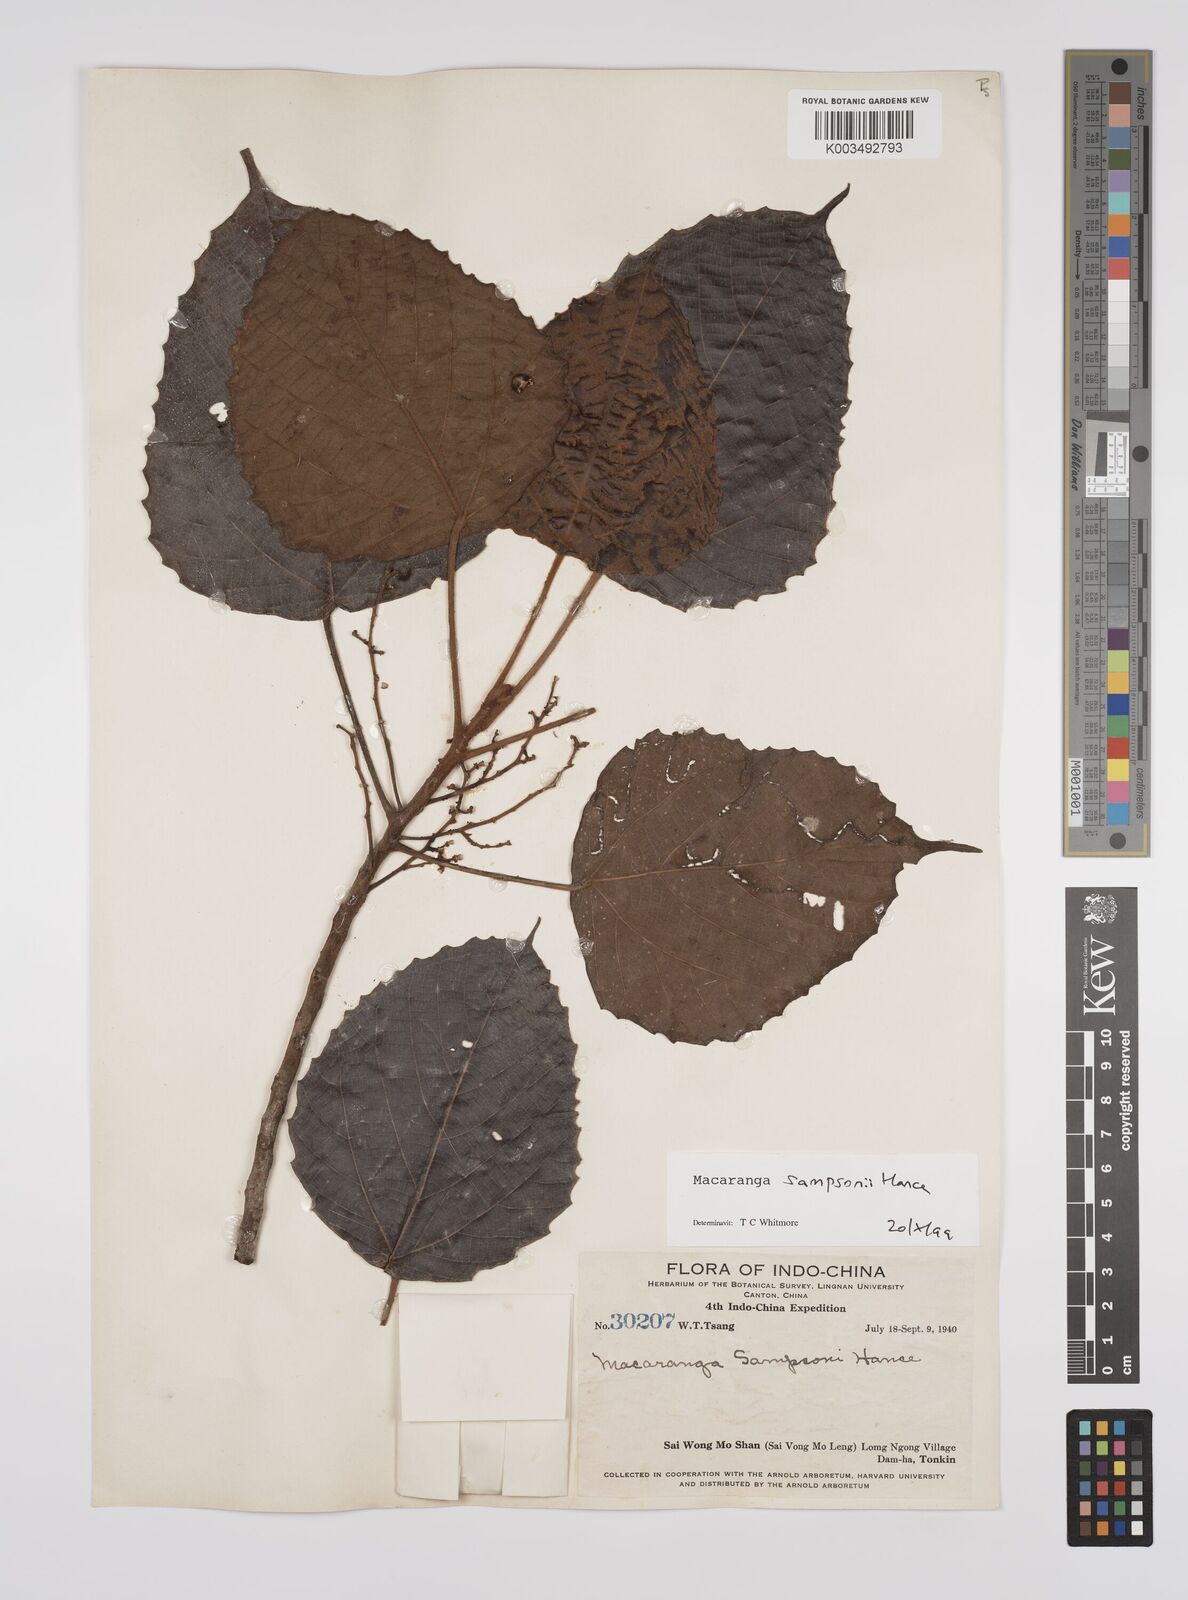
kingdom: Plantae
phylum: Tracheophyta
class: Magnoliopsida
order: Malpighiales
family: Euphorbiaceae
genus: Macaranga
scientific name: Macaranga sampsonii
